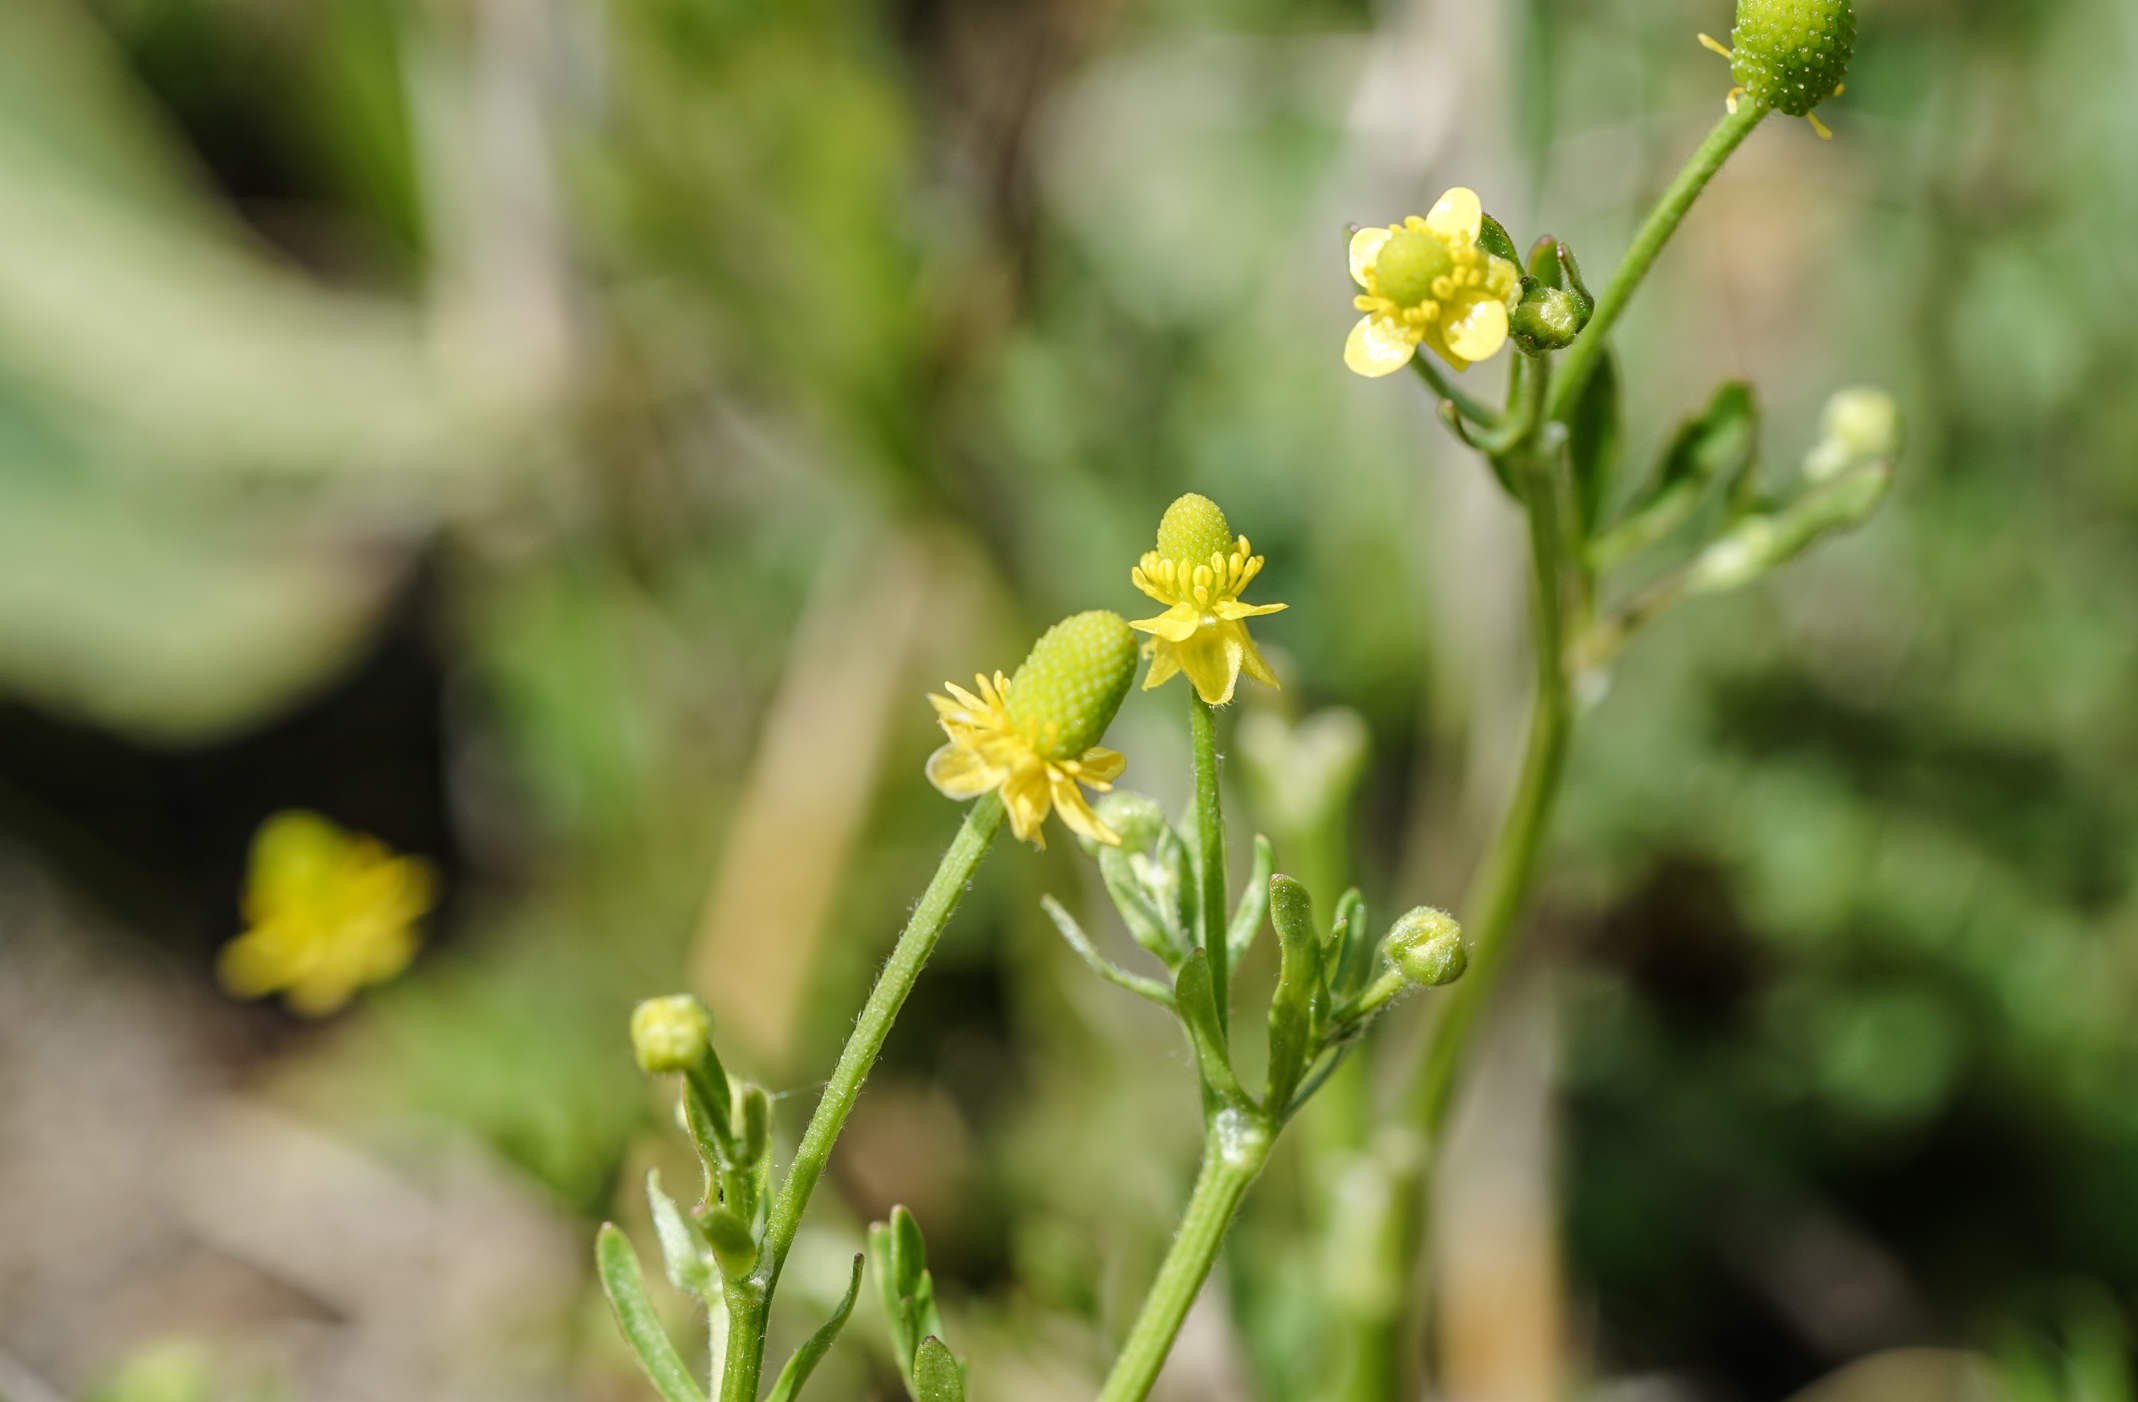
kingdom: Plantae
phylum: Tracheophyta
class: Magnoliopsida
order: Ranunculales
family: Ranunculaceae
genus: Ranunculus
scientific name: Ranunculus sceleratus
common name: Celery-leaved buttercup
